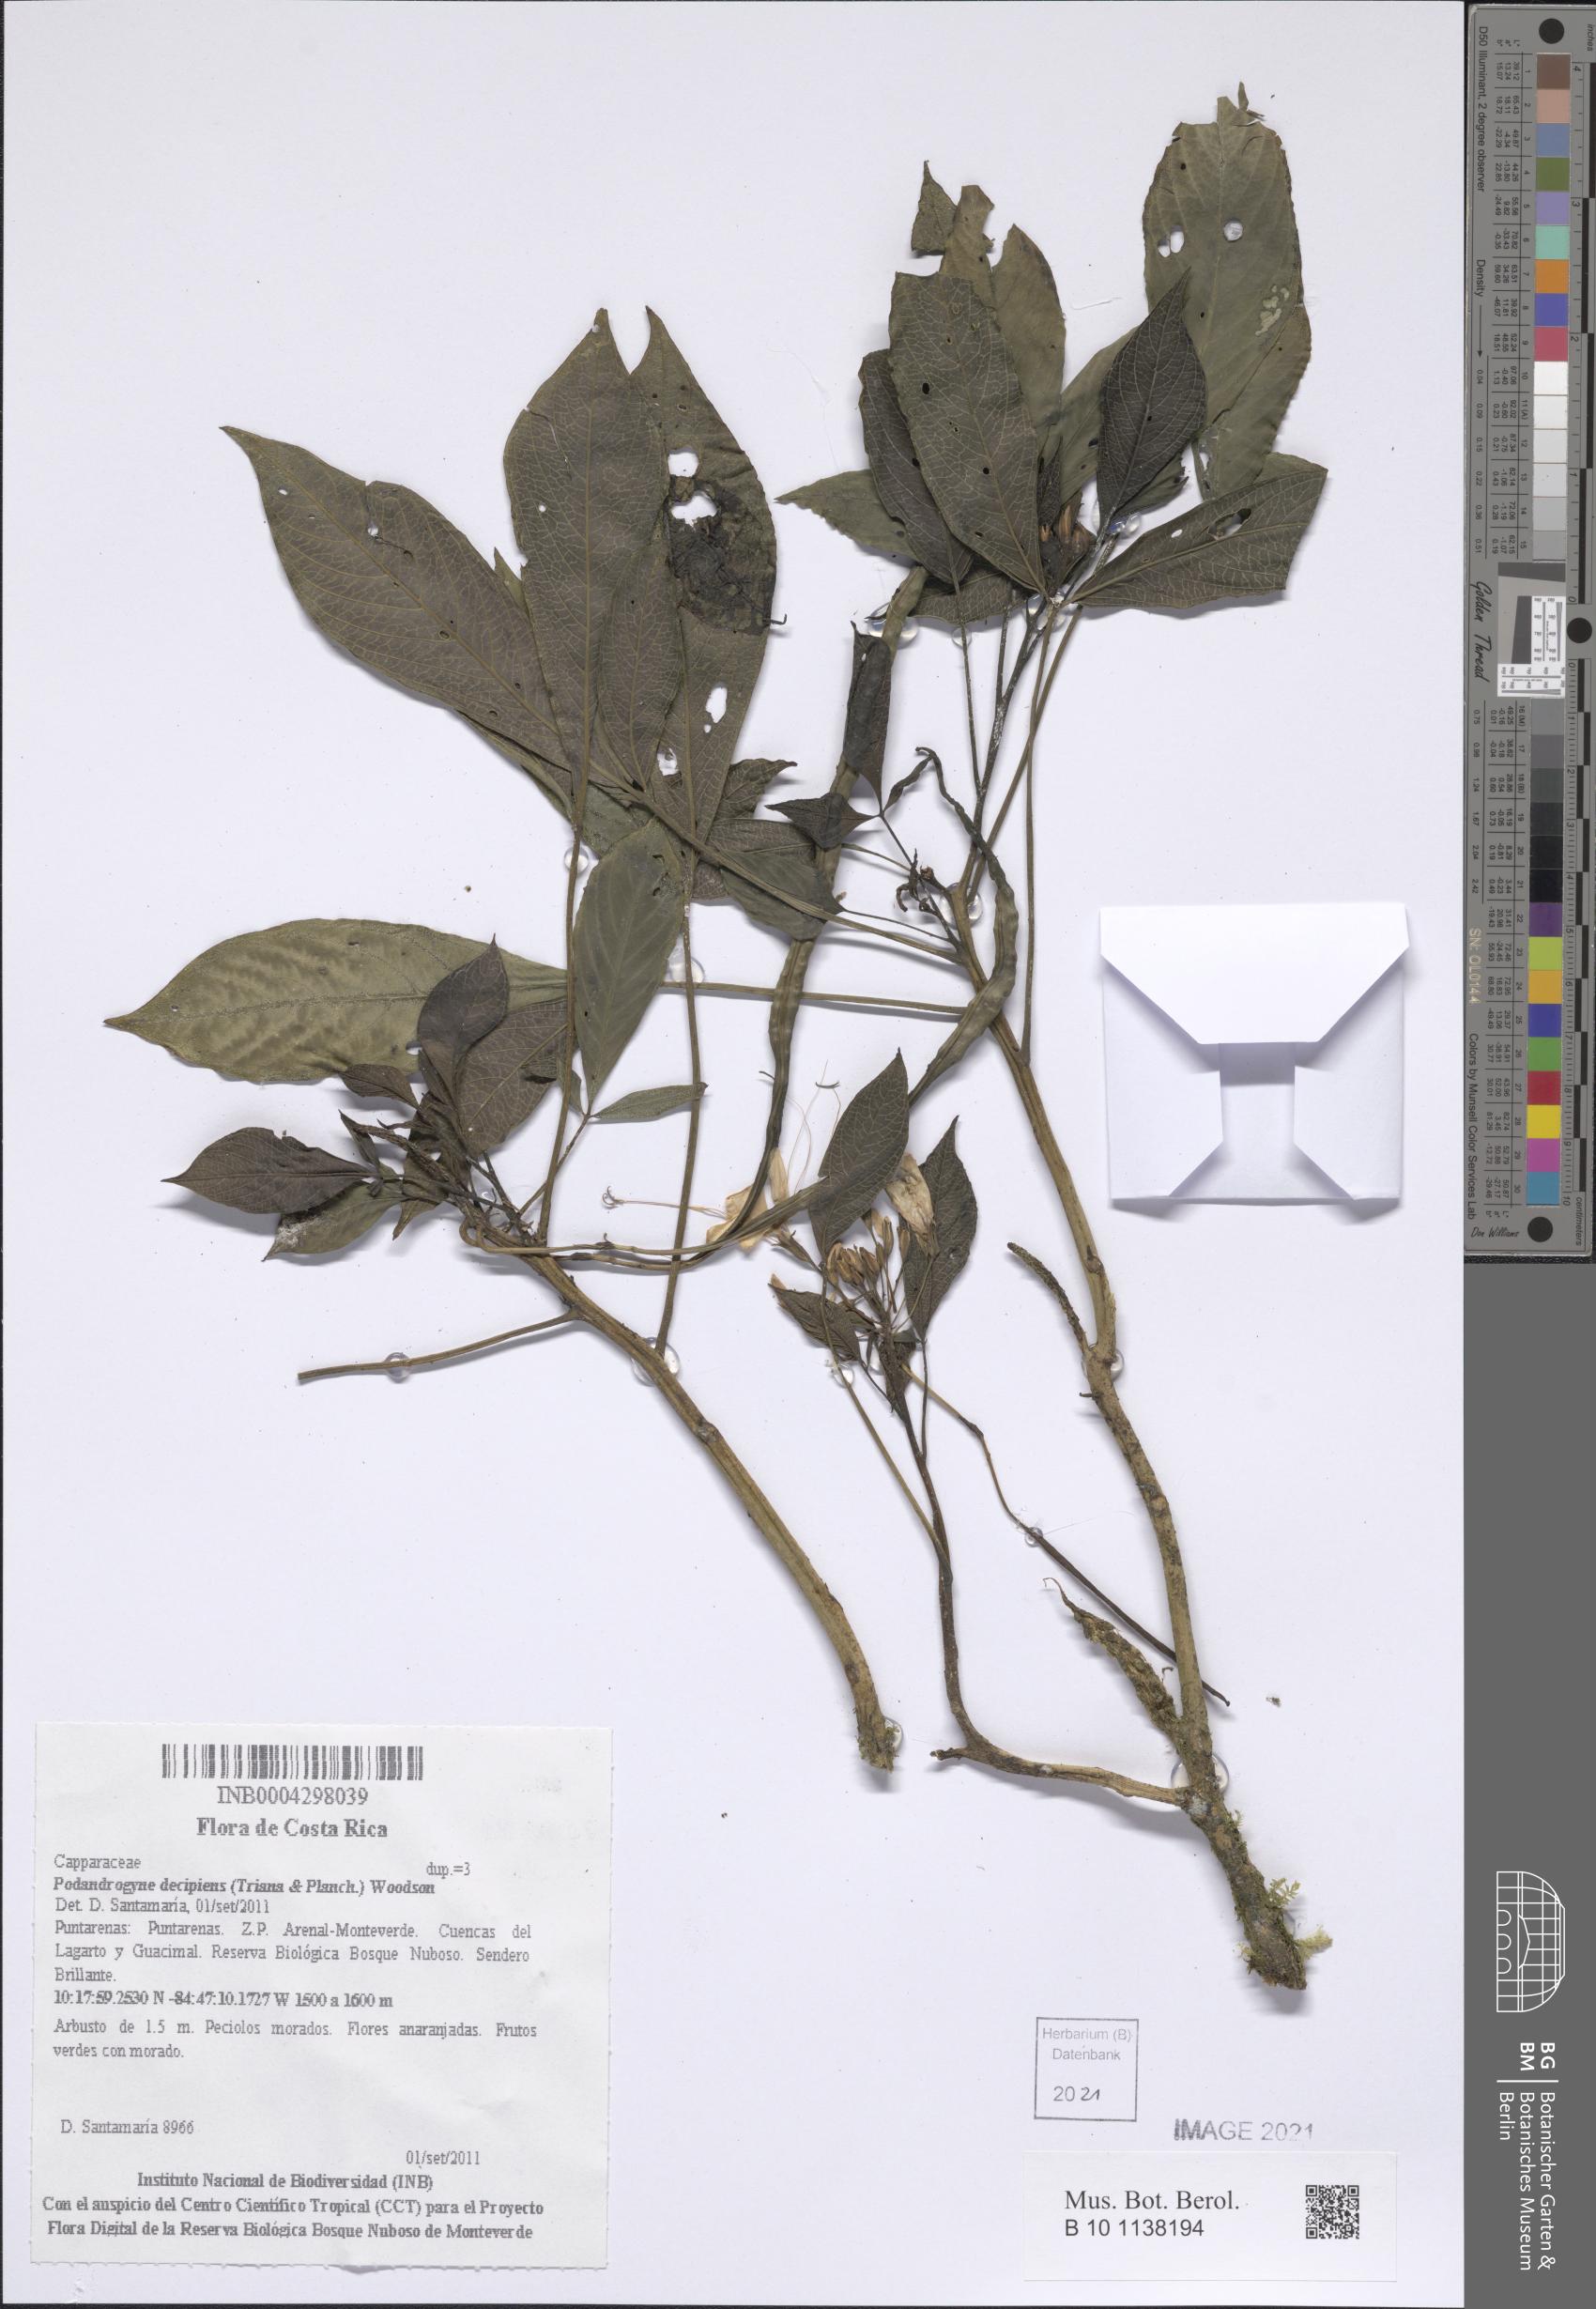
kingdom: Plantae
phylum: Tracheophyta
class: Magnoliopsida
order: Brassicales
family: Cleomaceae
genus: Podandrogyne
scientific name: Podandrogyne decipiens
